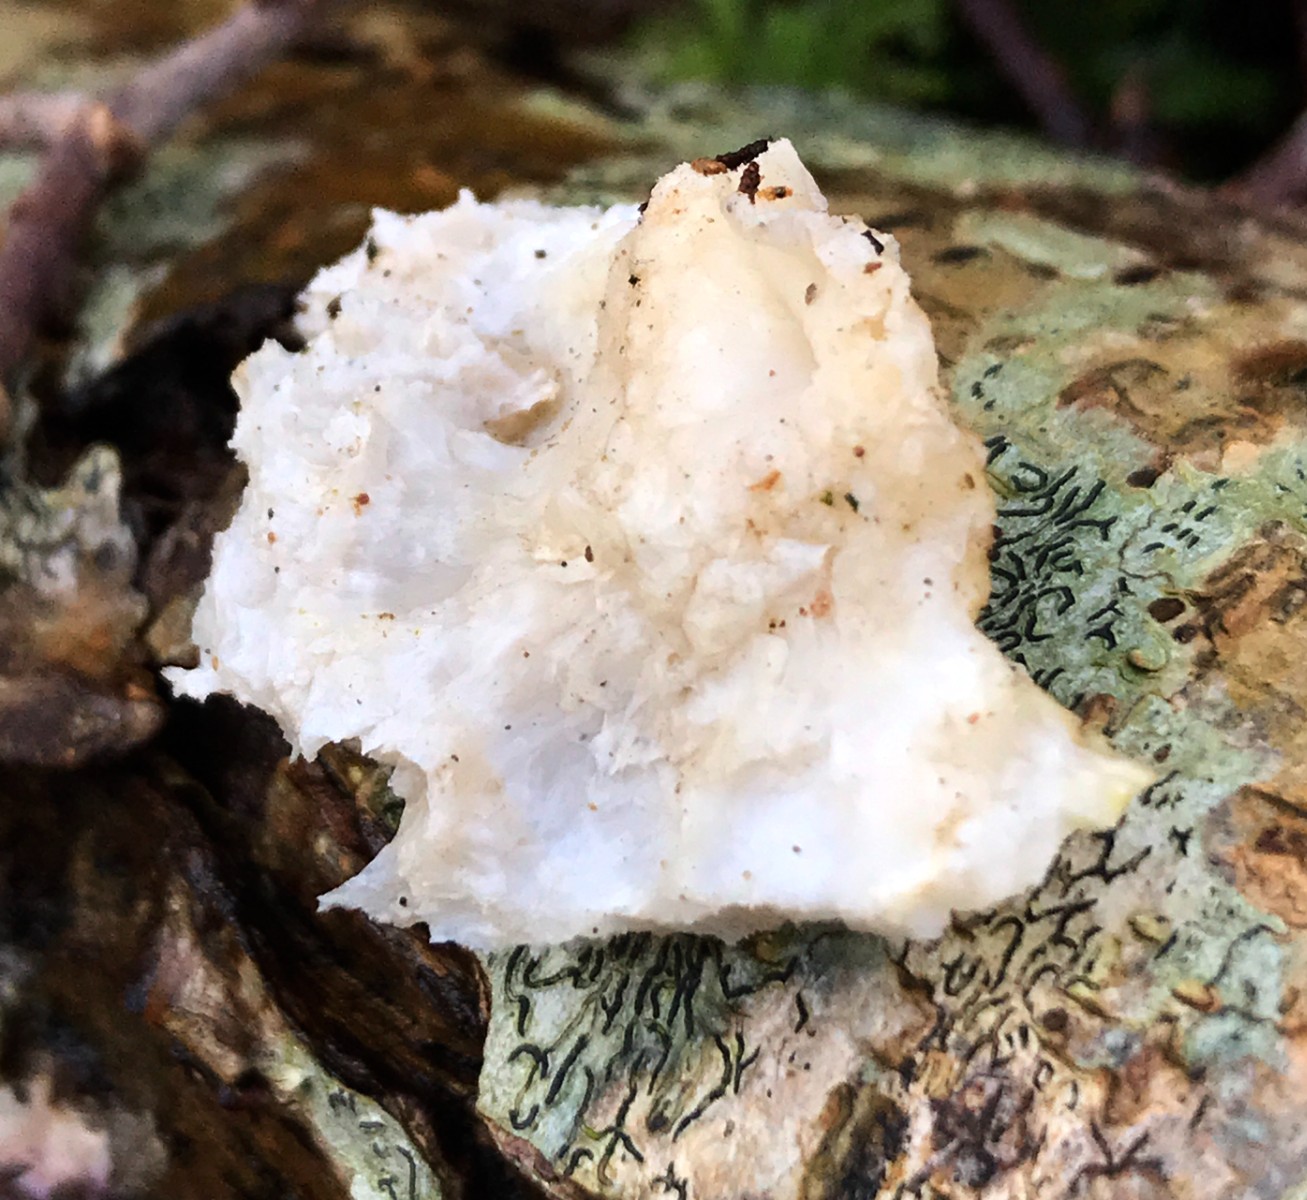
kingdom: Fungi
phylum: Basidiomycota
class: Agaricomycetes
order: Polyporales
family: Incrustoporiaceae
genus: Tyromyces
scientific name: Tyromyces lacteus
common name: mælkehvid kødporesvamp
